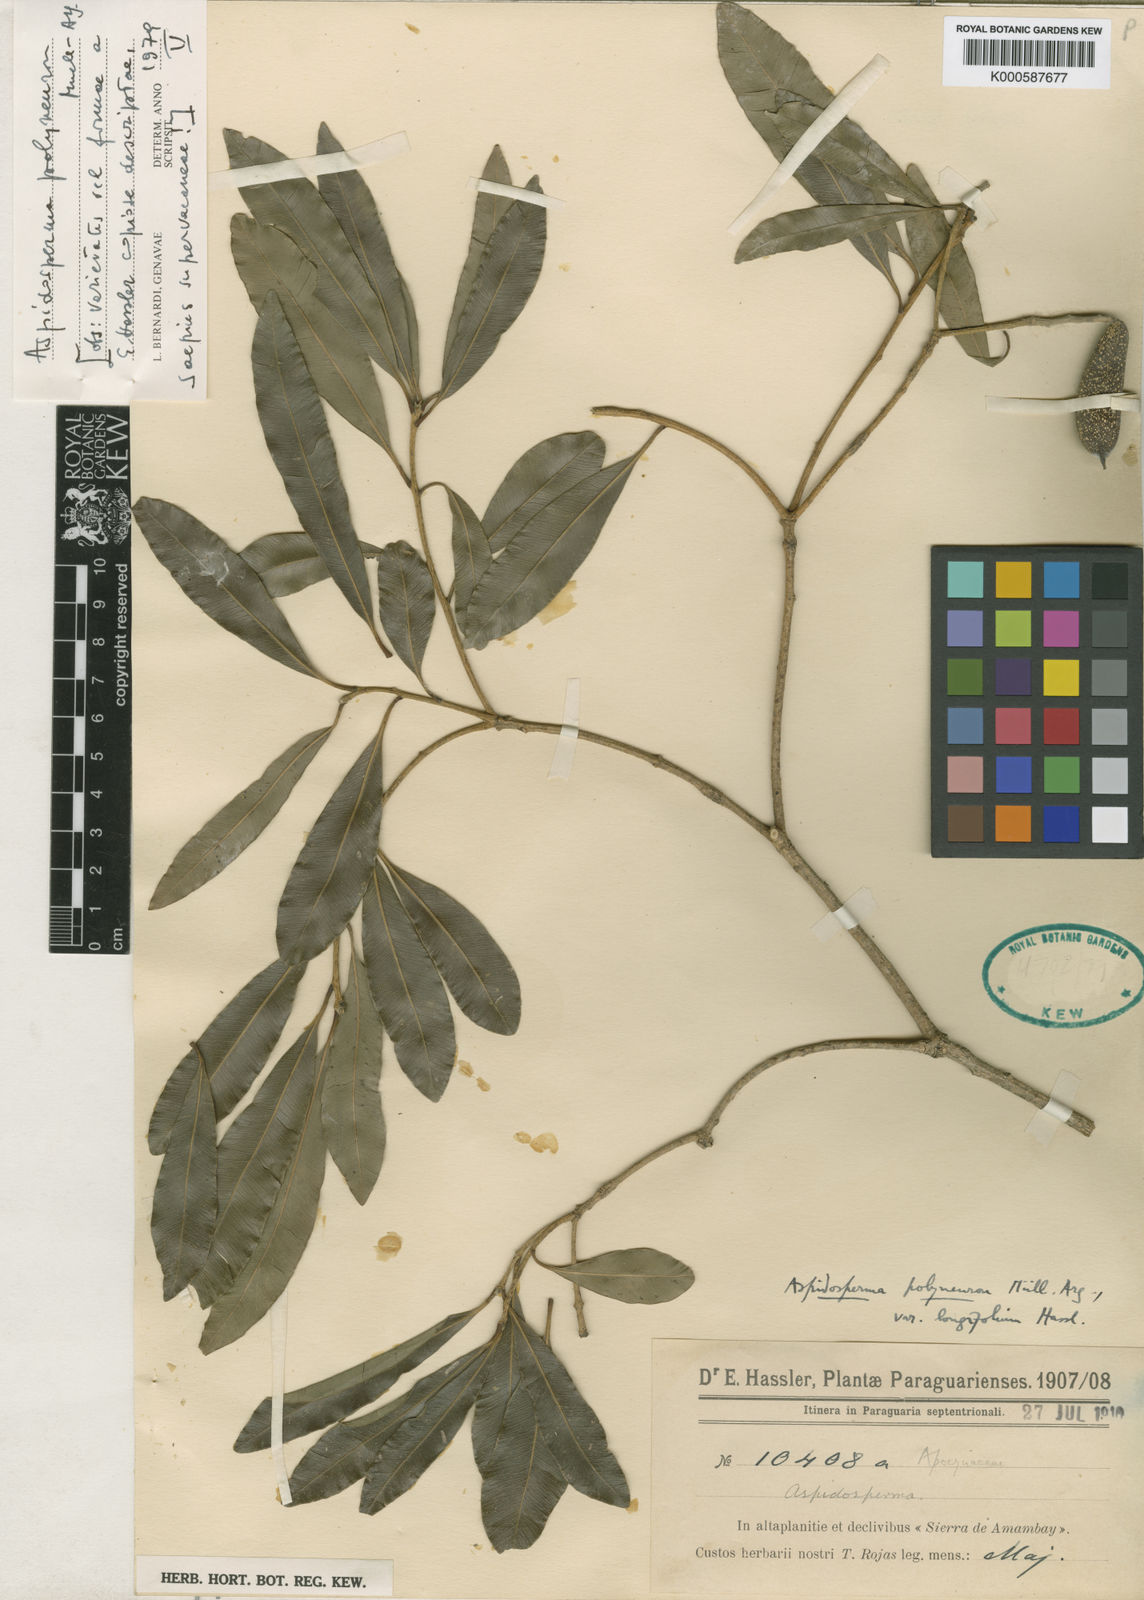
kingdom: Plantae
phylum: Tracheophyta
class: Magnoliopsida
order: Gentianales
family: Apocynaceae
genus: Aspidosperma
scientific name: Aspidosperma
